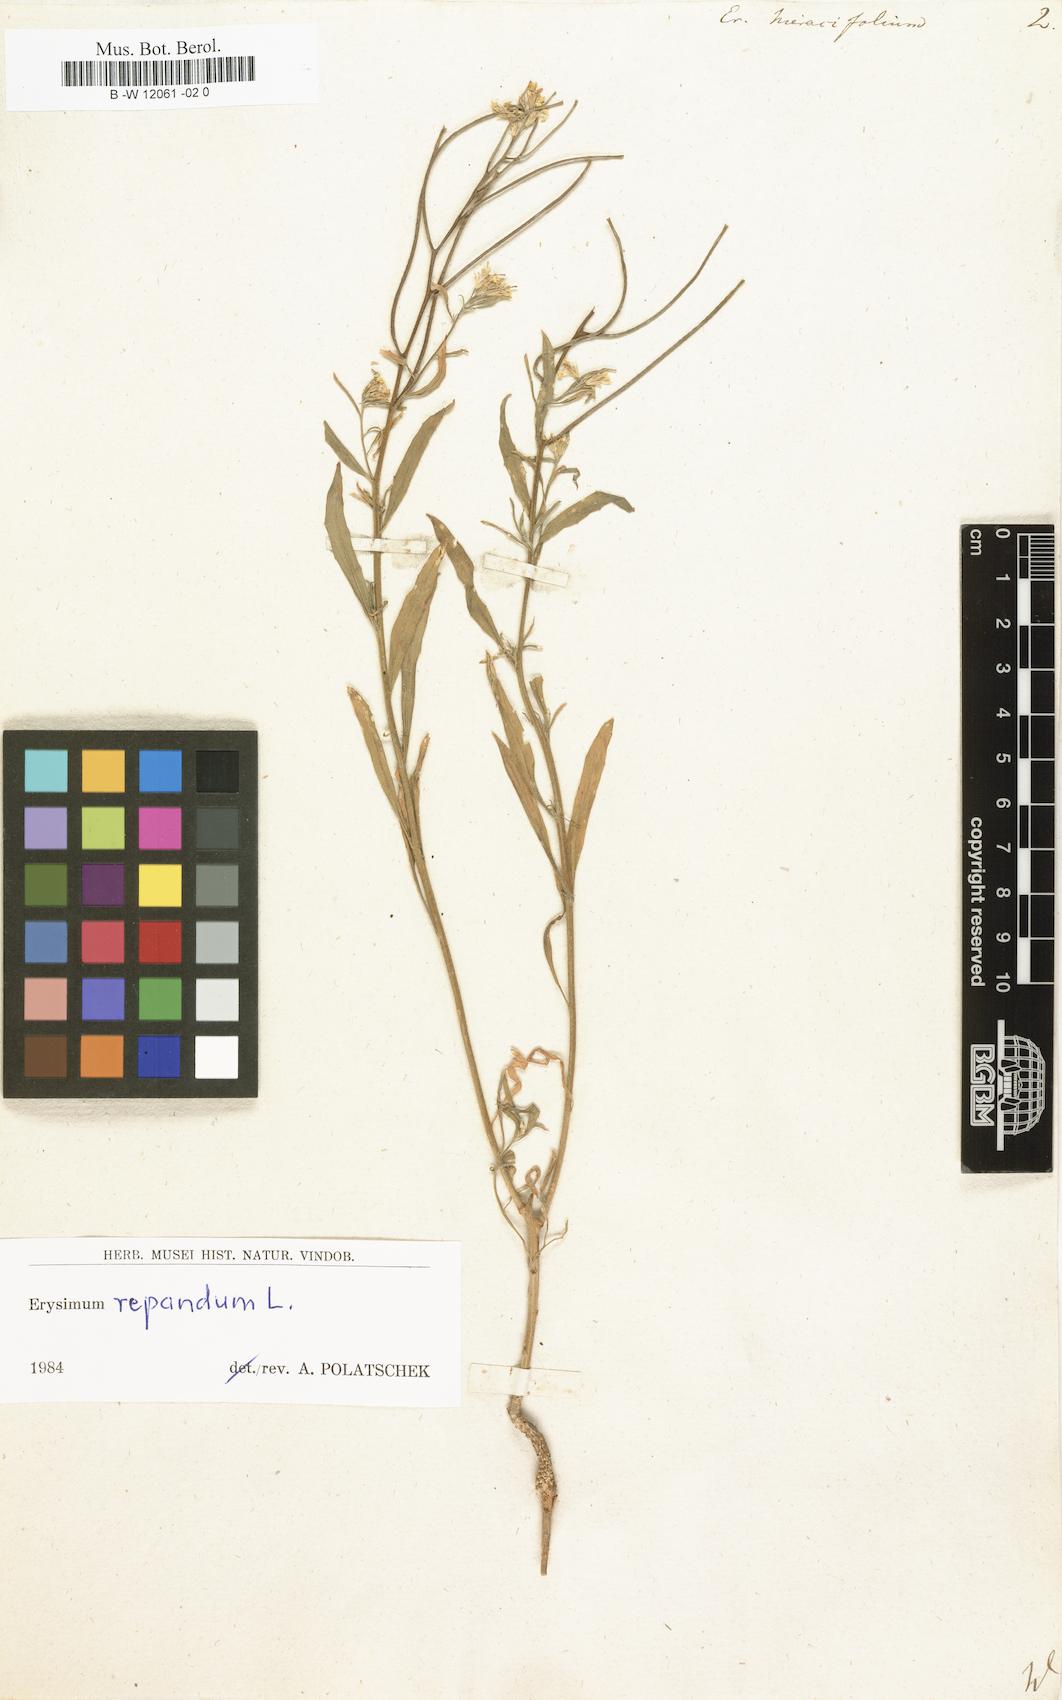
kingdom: Plantae
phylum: Tracheophyta
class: Magnoliopsida
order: Brassicales
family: Brassicaceae
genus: Erysimum
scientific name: Erysimum hieraciifolium
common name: European wallflower
